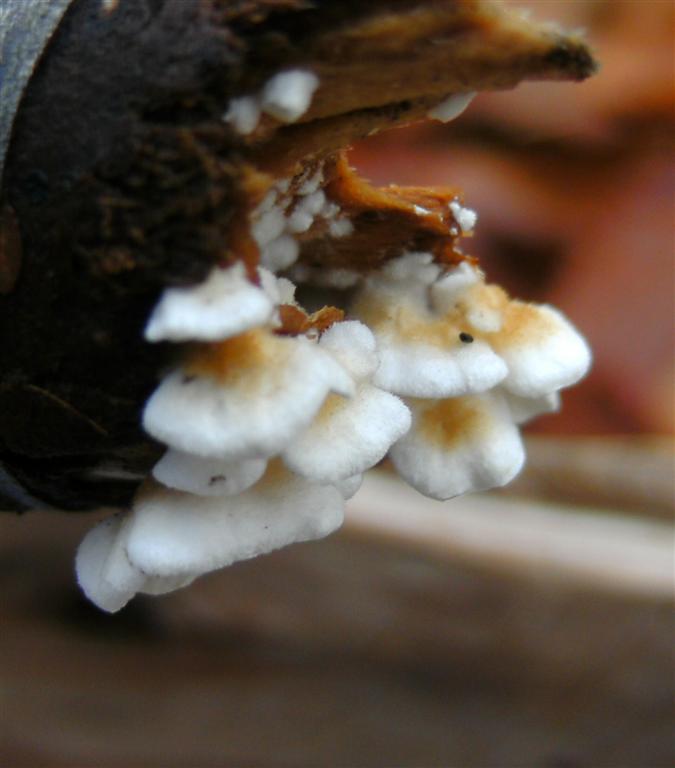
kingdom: Fungi
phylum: Basidiomycota
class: Agaricomycetes
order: Amylocorticiales
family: Amylocorticiaceae
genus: Plicaturopsis
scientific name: Plicaturopsis crispa
